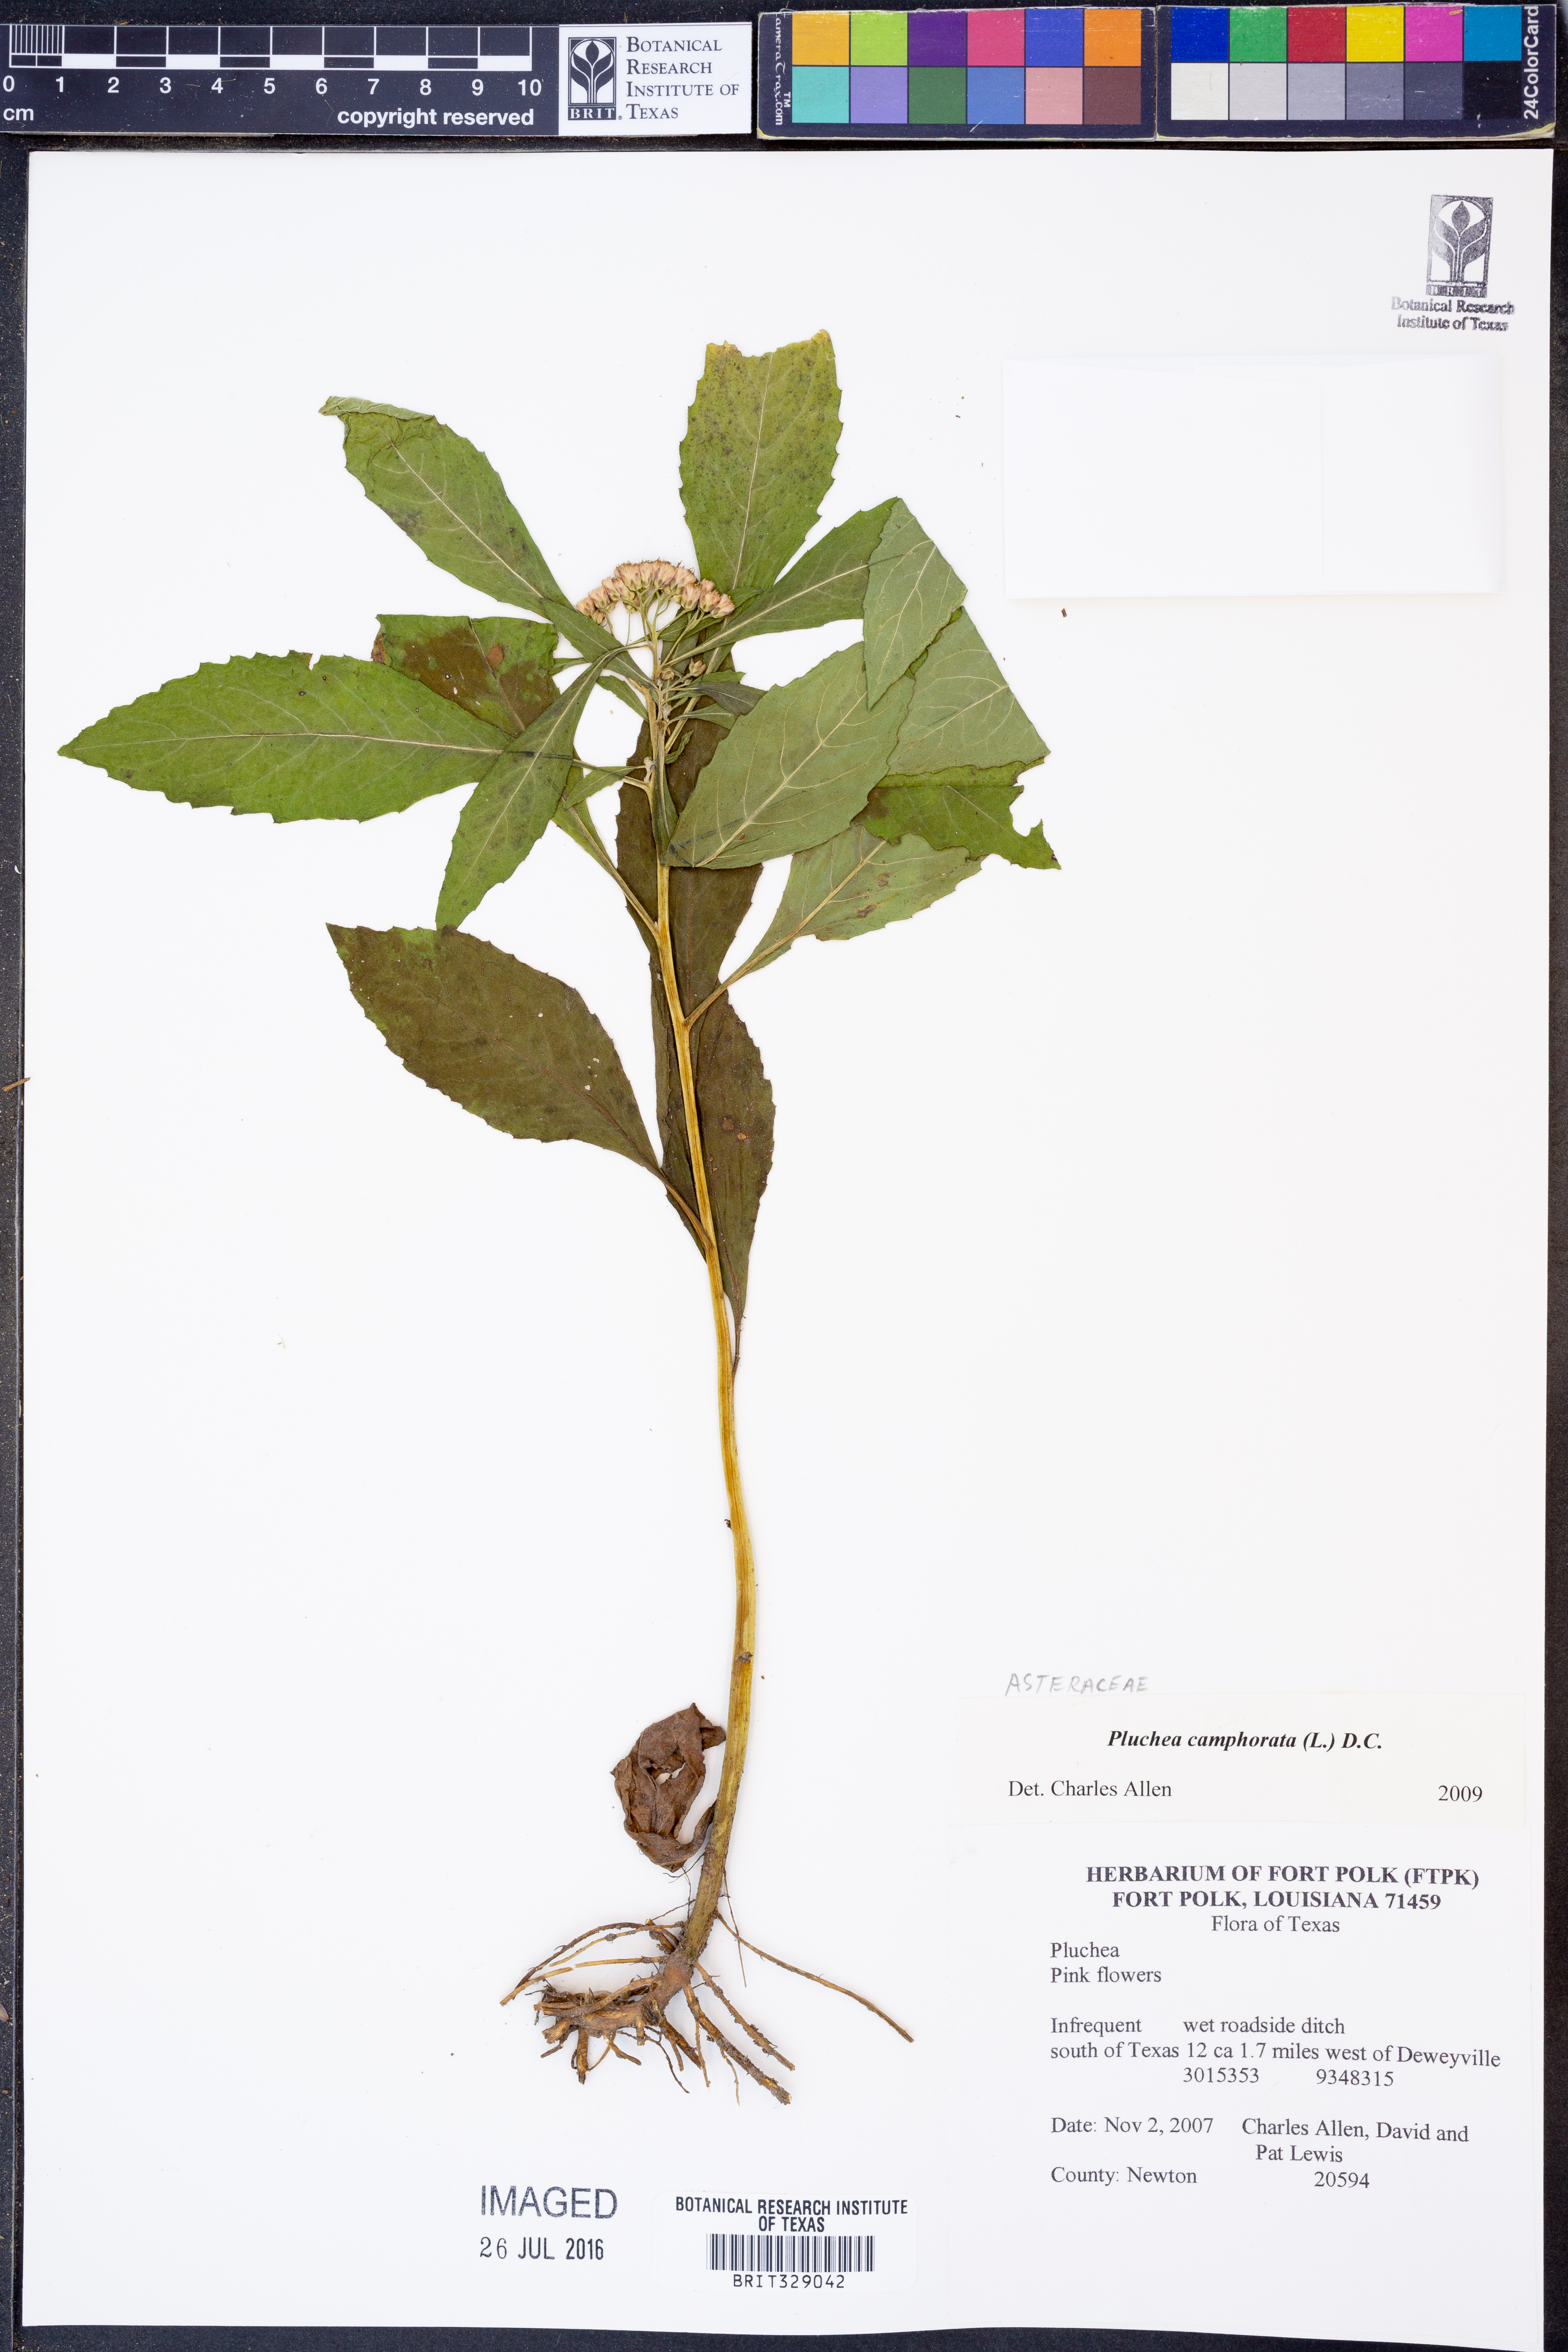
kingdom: Plantae
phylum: Tracheophyta
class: Magnoliopsida
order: Asterales
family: Asteraceae
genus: Pluchea
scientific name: Pluchea camphorata
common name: Camphor pluchea
